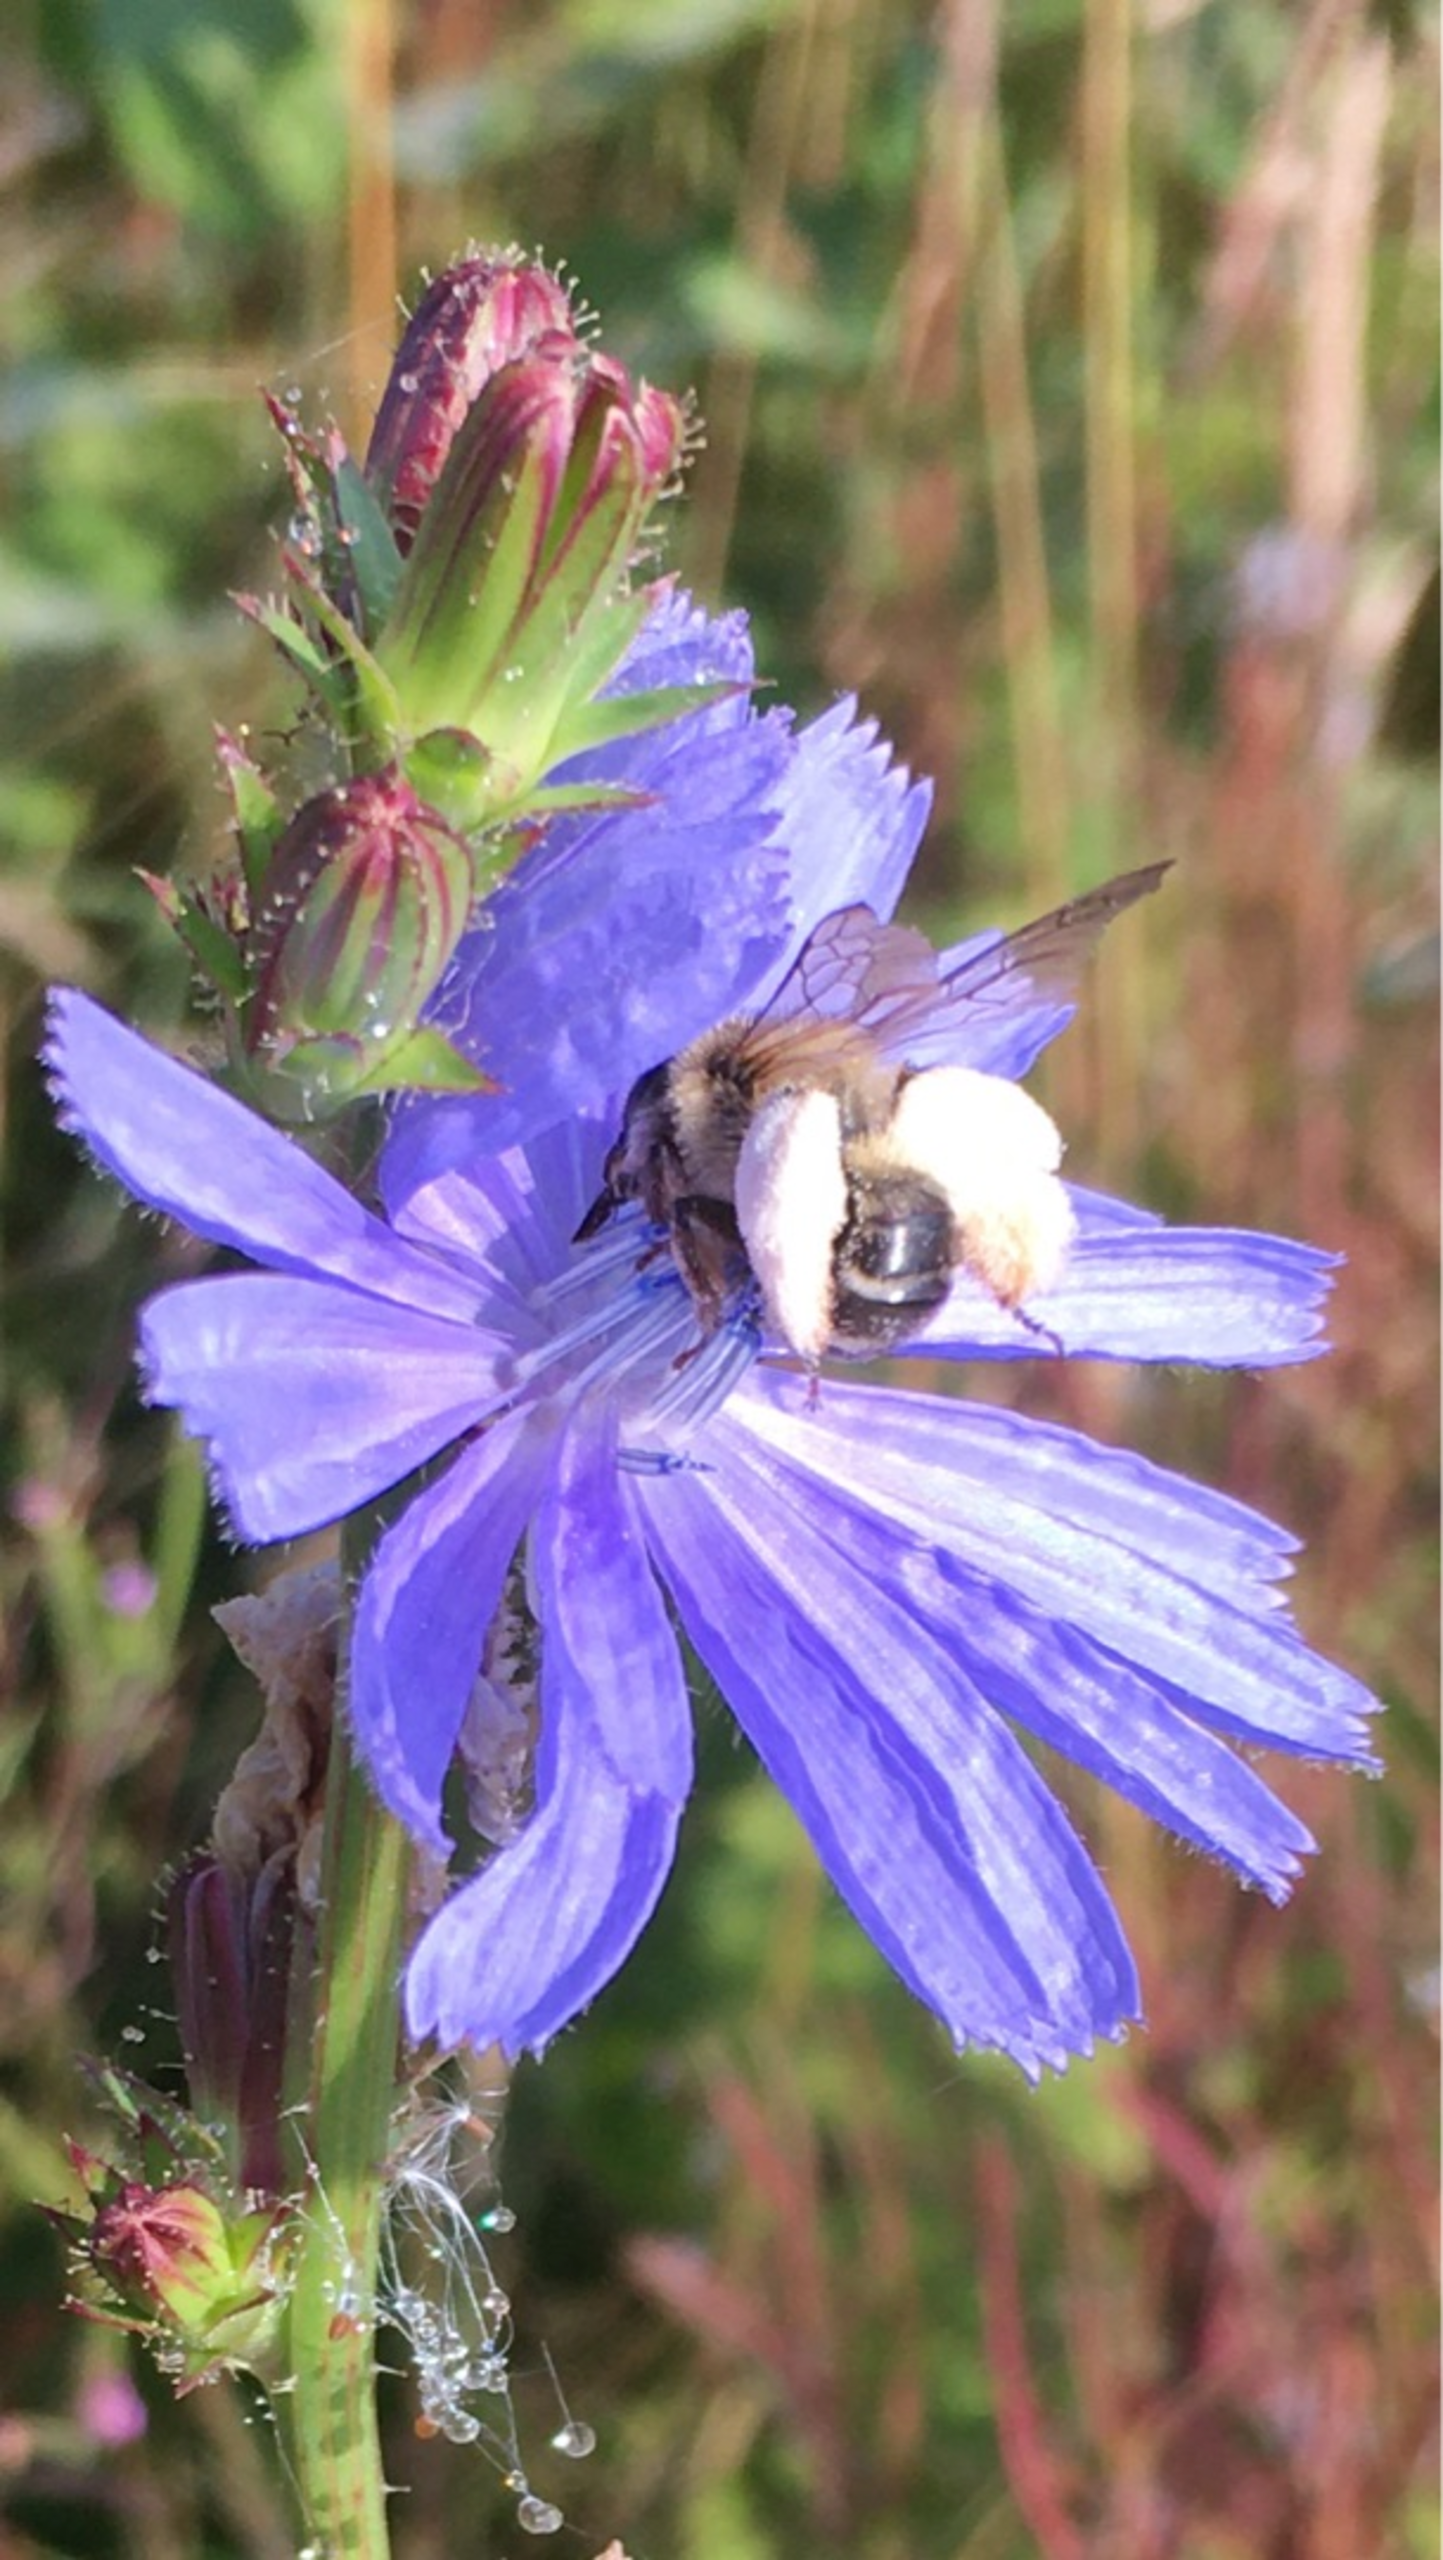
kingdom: Animalia
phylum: Arthropoda
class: Insecta
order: Hymenoptera
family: Melittidae
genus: Dasypoda
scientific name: Dasypoda hirtipes
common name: Pragtbuksebi
